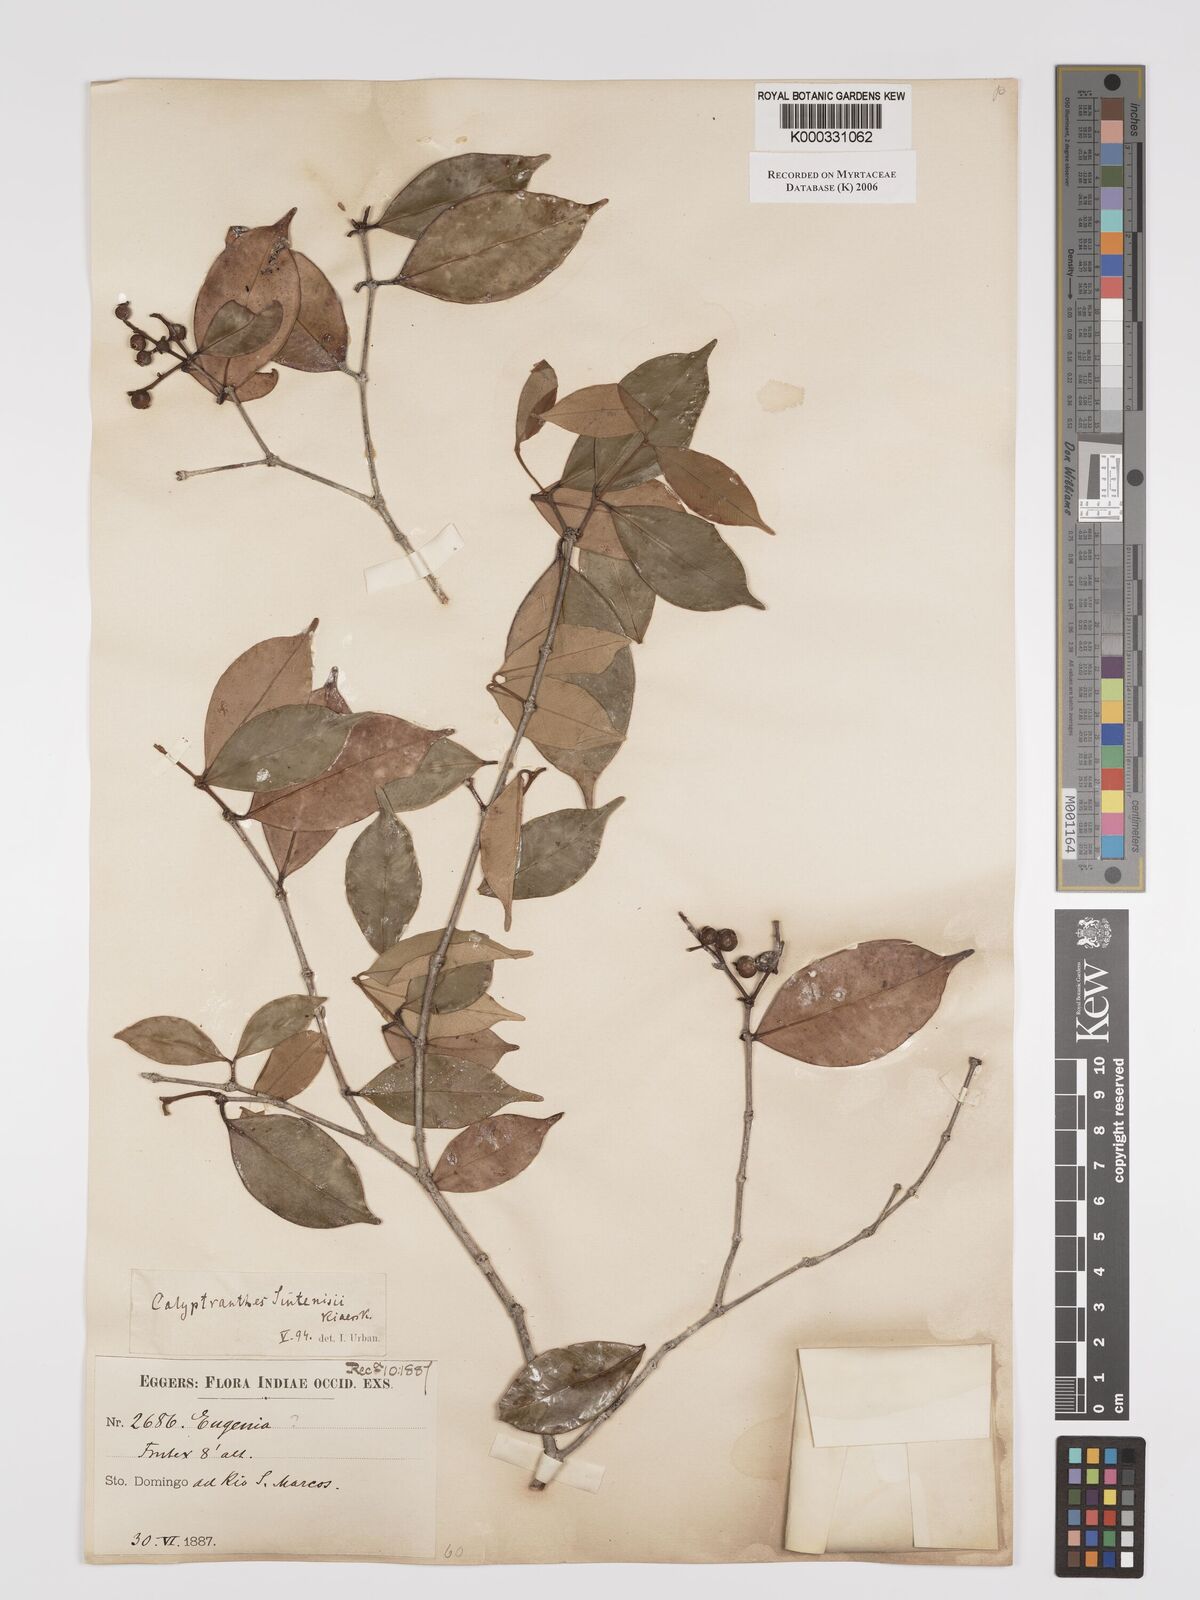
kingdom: Plantae
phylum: Tracheophyta
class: Magnoliopsida
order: Myrtales
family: Myrtaceae
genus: Myrcia
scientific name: Myrcia neosintenisii
